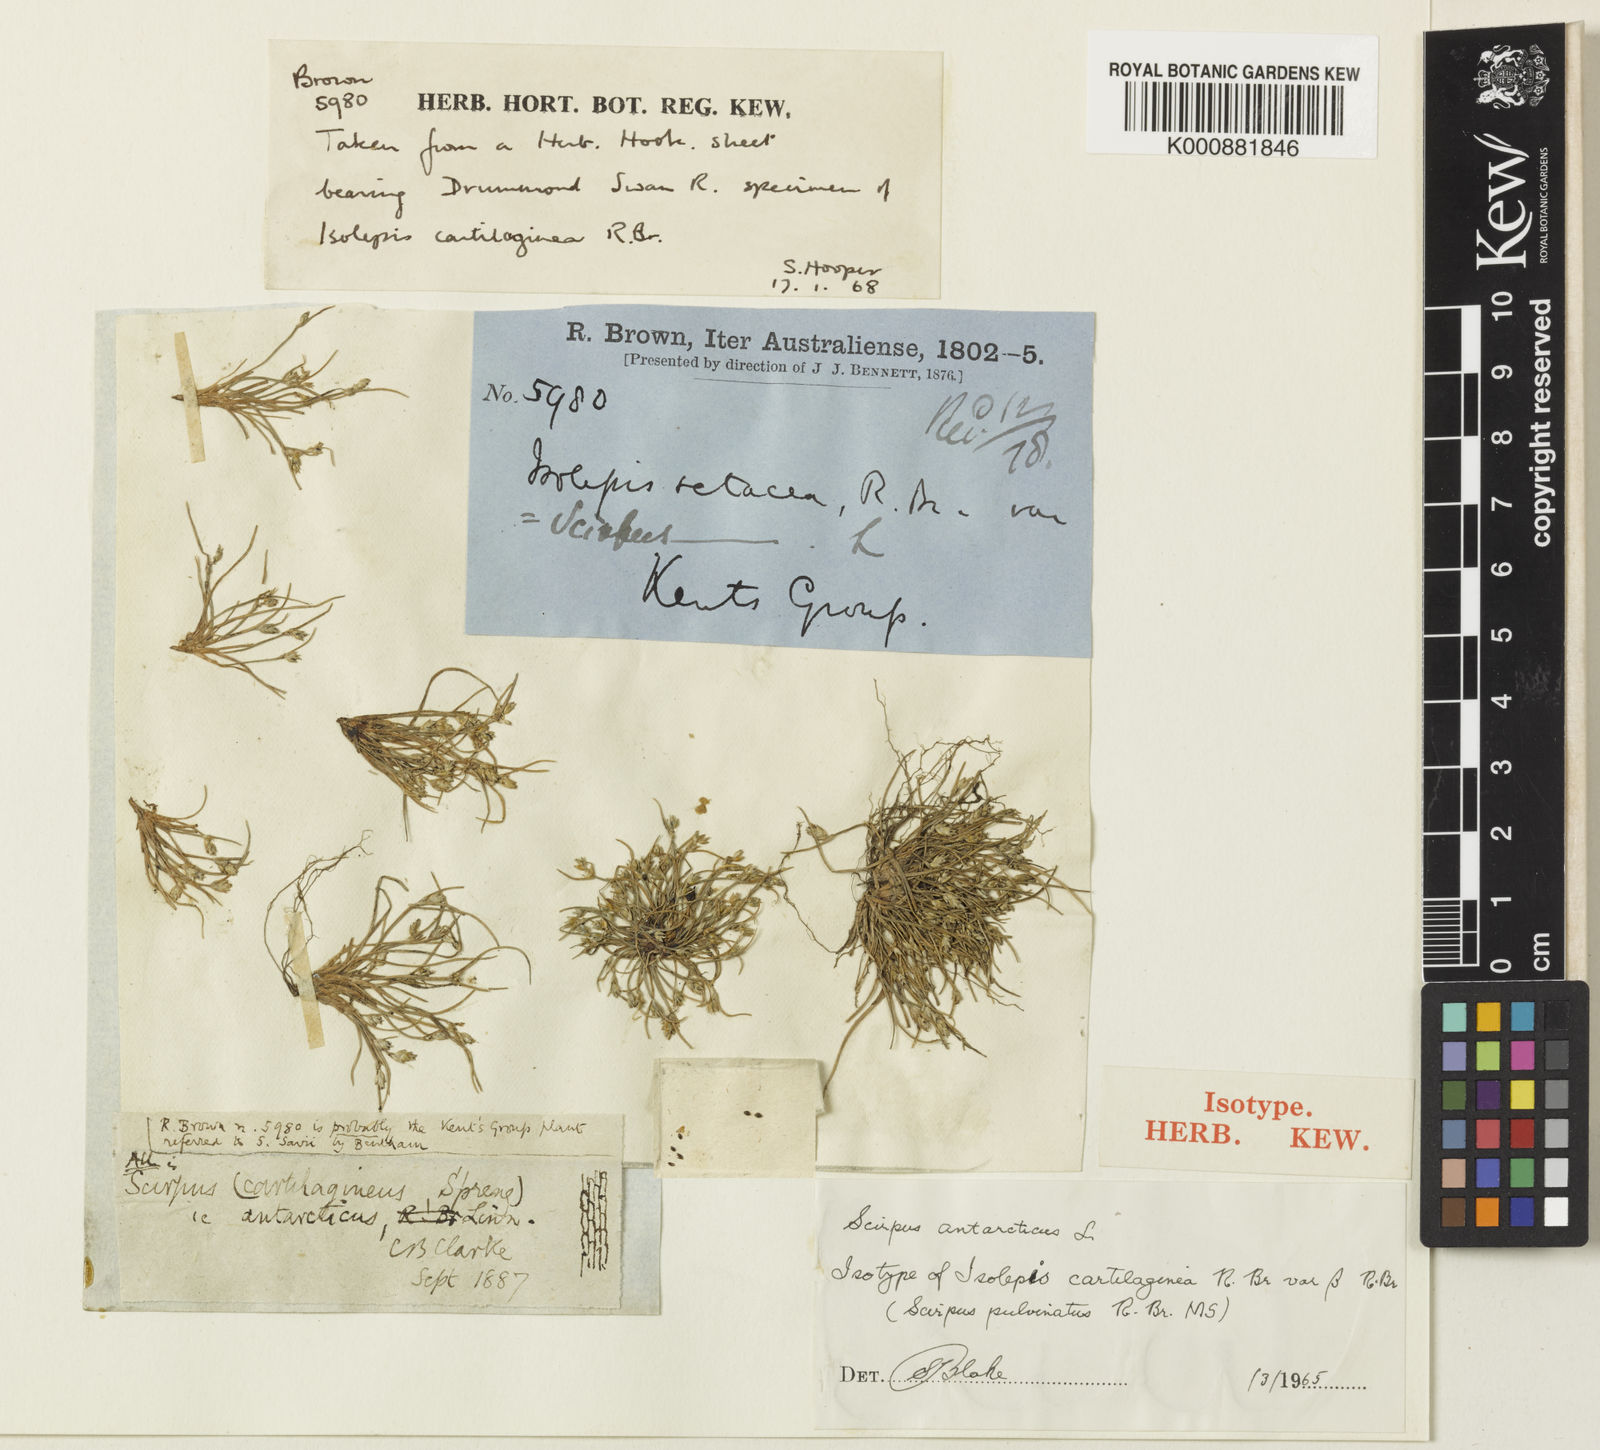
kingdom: Plantae
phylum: Tracheophyta
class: Liliopsida
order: Poales
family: Cyperaceae
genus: Isolepis
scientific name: Isolepis marginata
